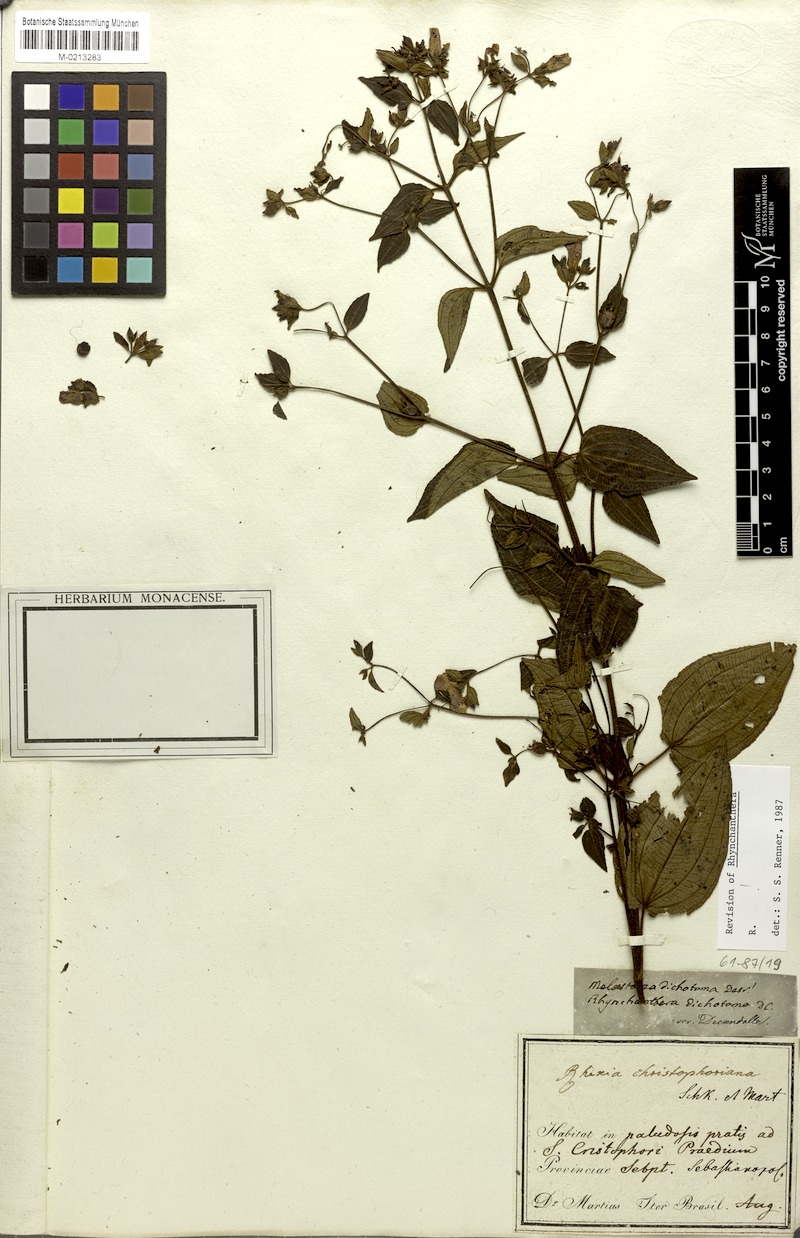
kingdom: Plantae
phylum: Tracheophyta
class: Magnoliopsida
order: Myrtales
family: Melastomataceae
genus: Rhynchanthera
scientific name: Rhynchanthera dichotoma
